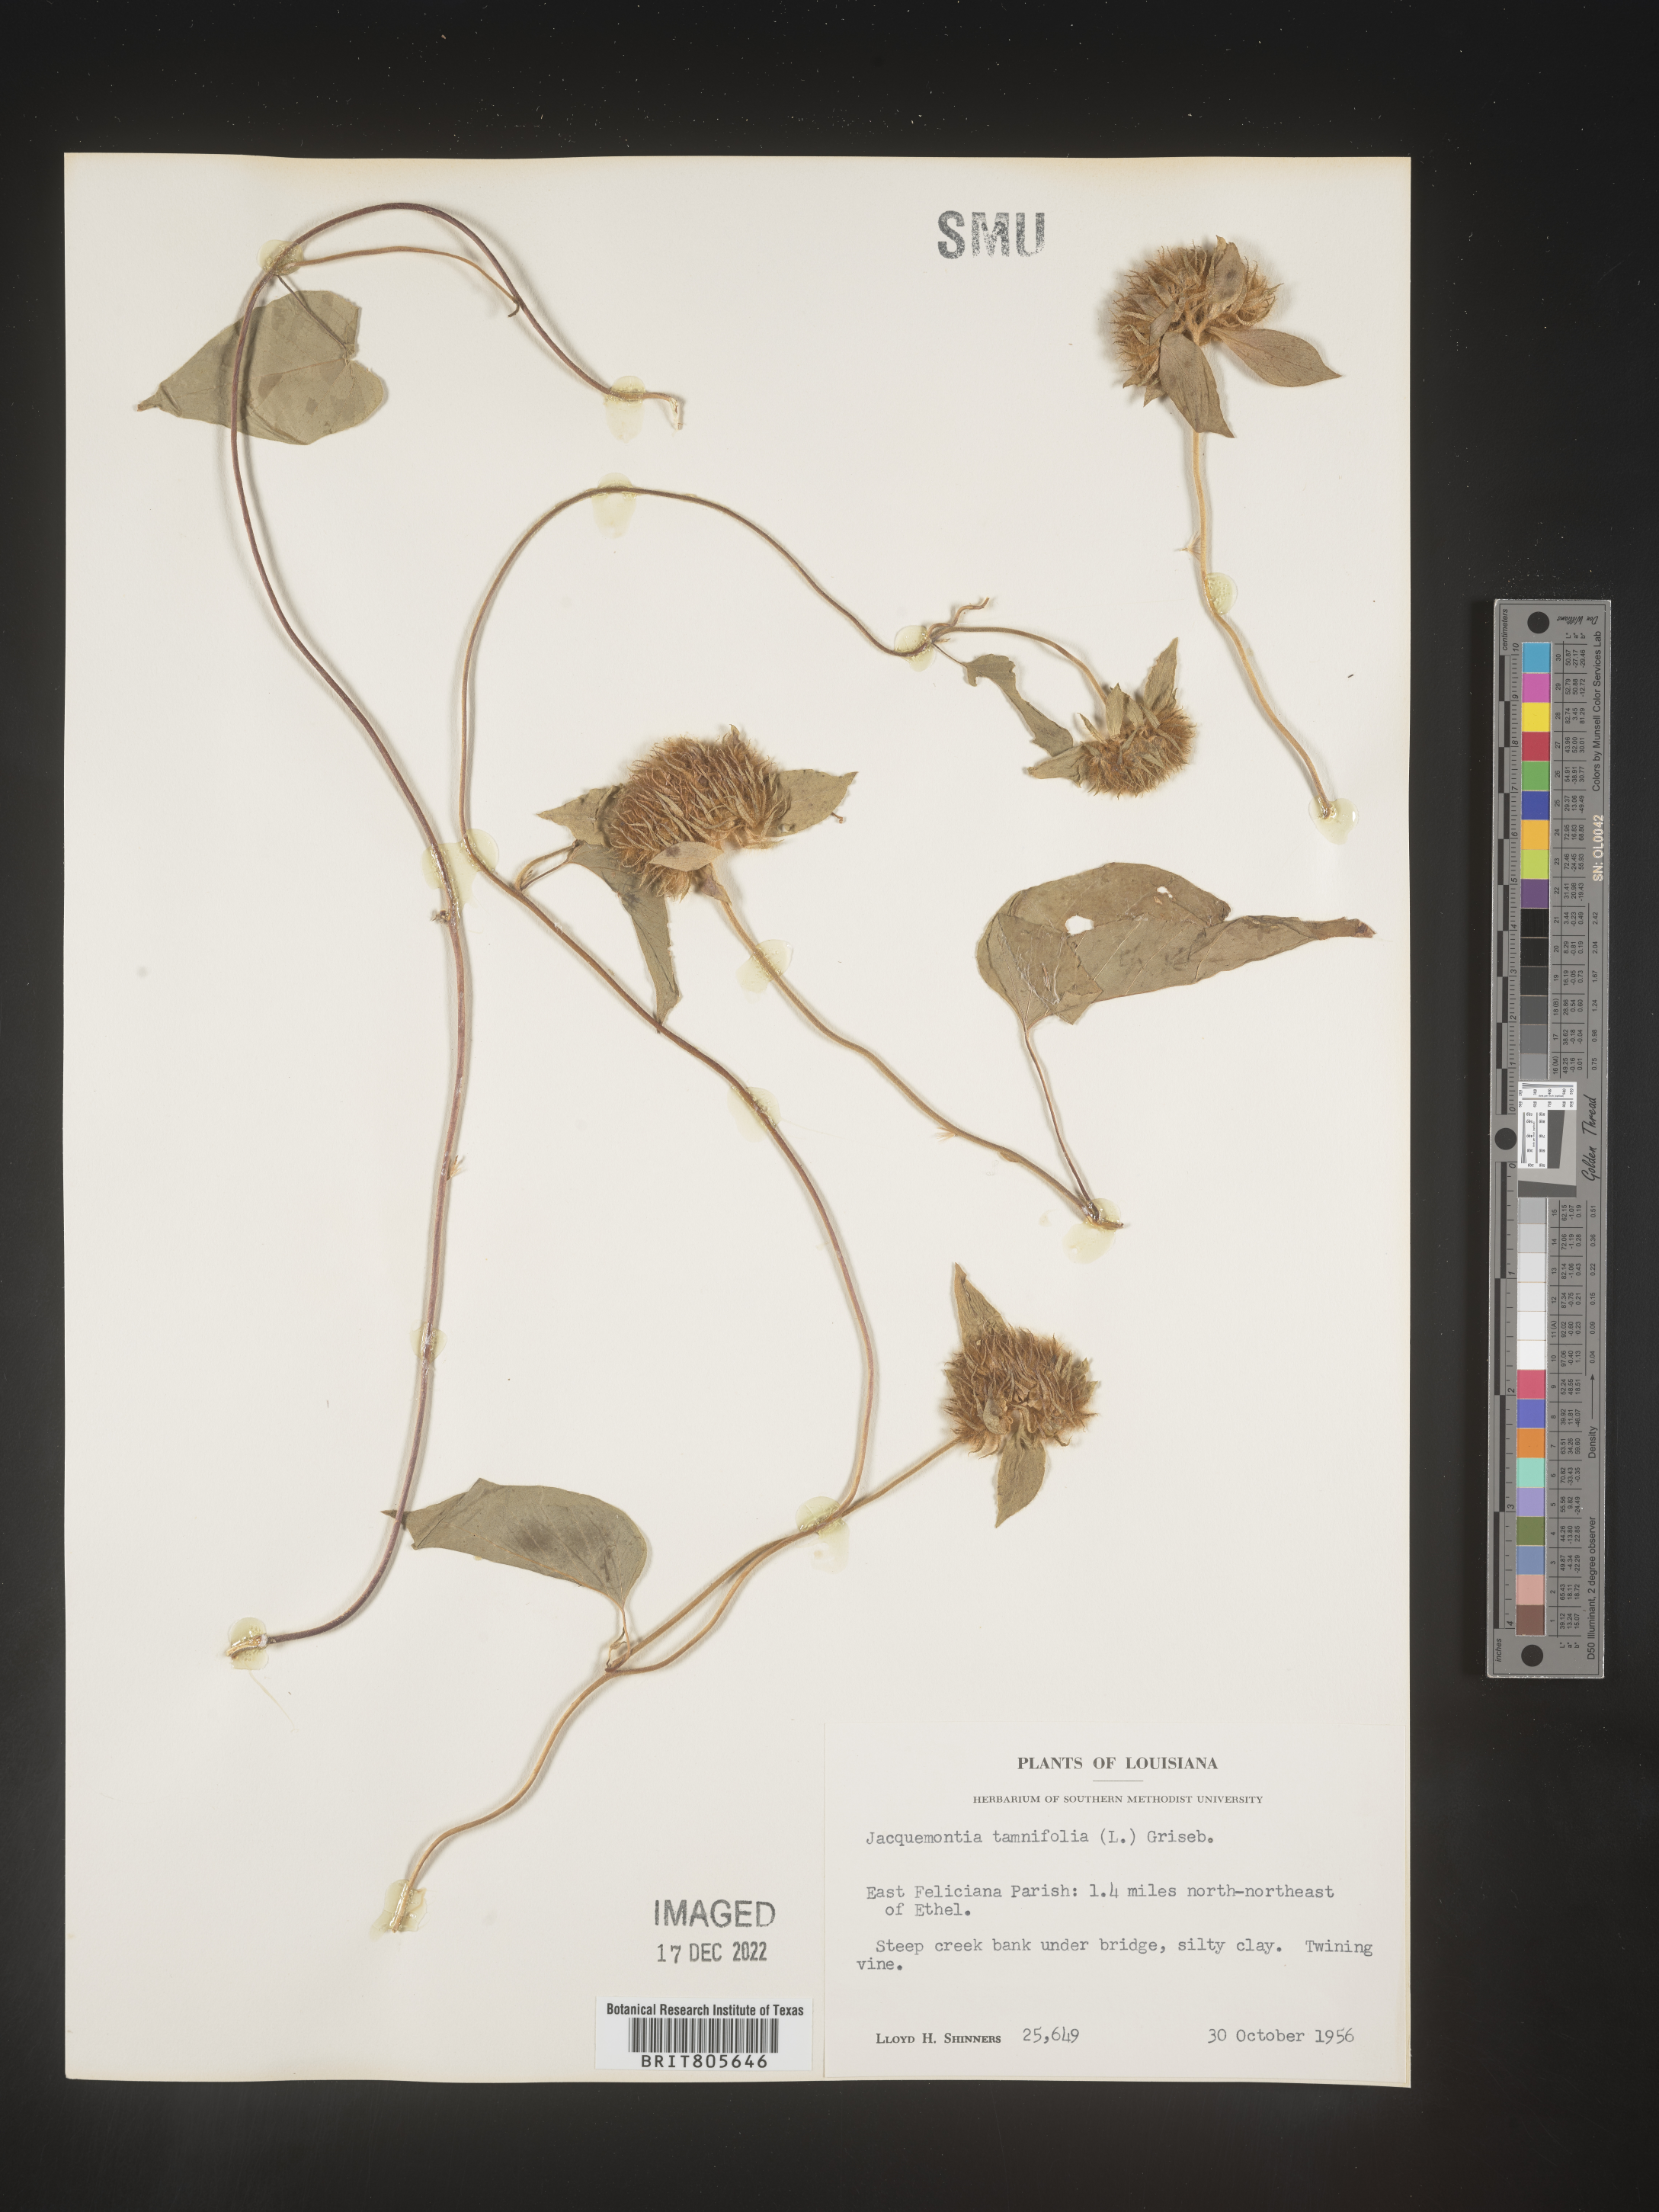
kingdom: Plantae
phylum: Tracheophyta
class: Magnoliopsida
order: Solanales
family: Convolvulaceae
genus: Jacquemontia
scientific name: Jacquemontia tamnifolia
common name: Hairy clustervine
